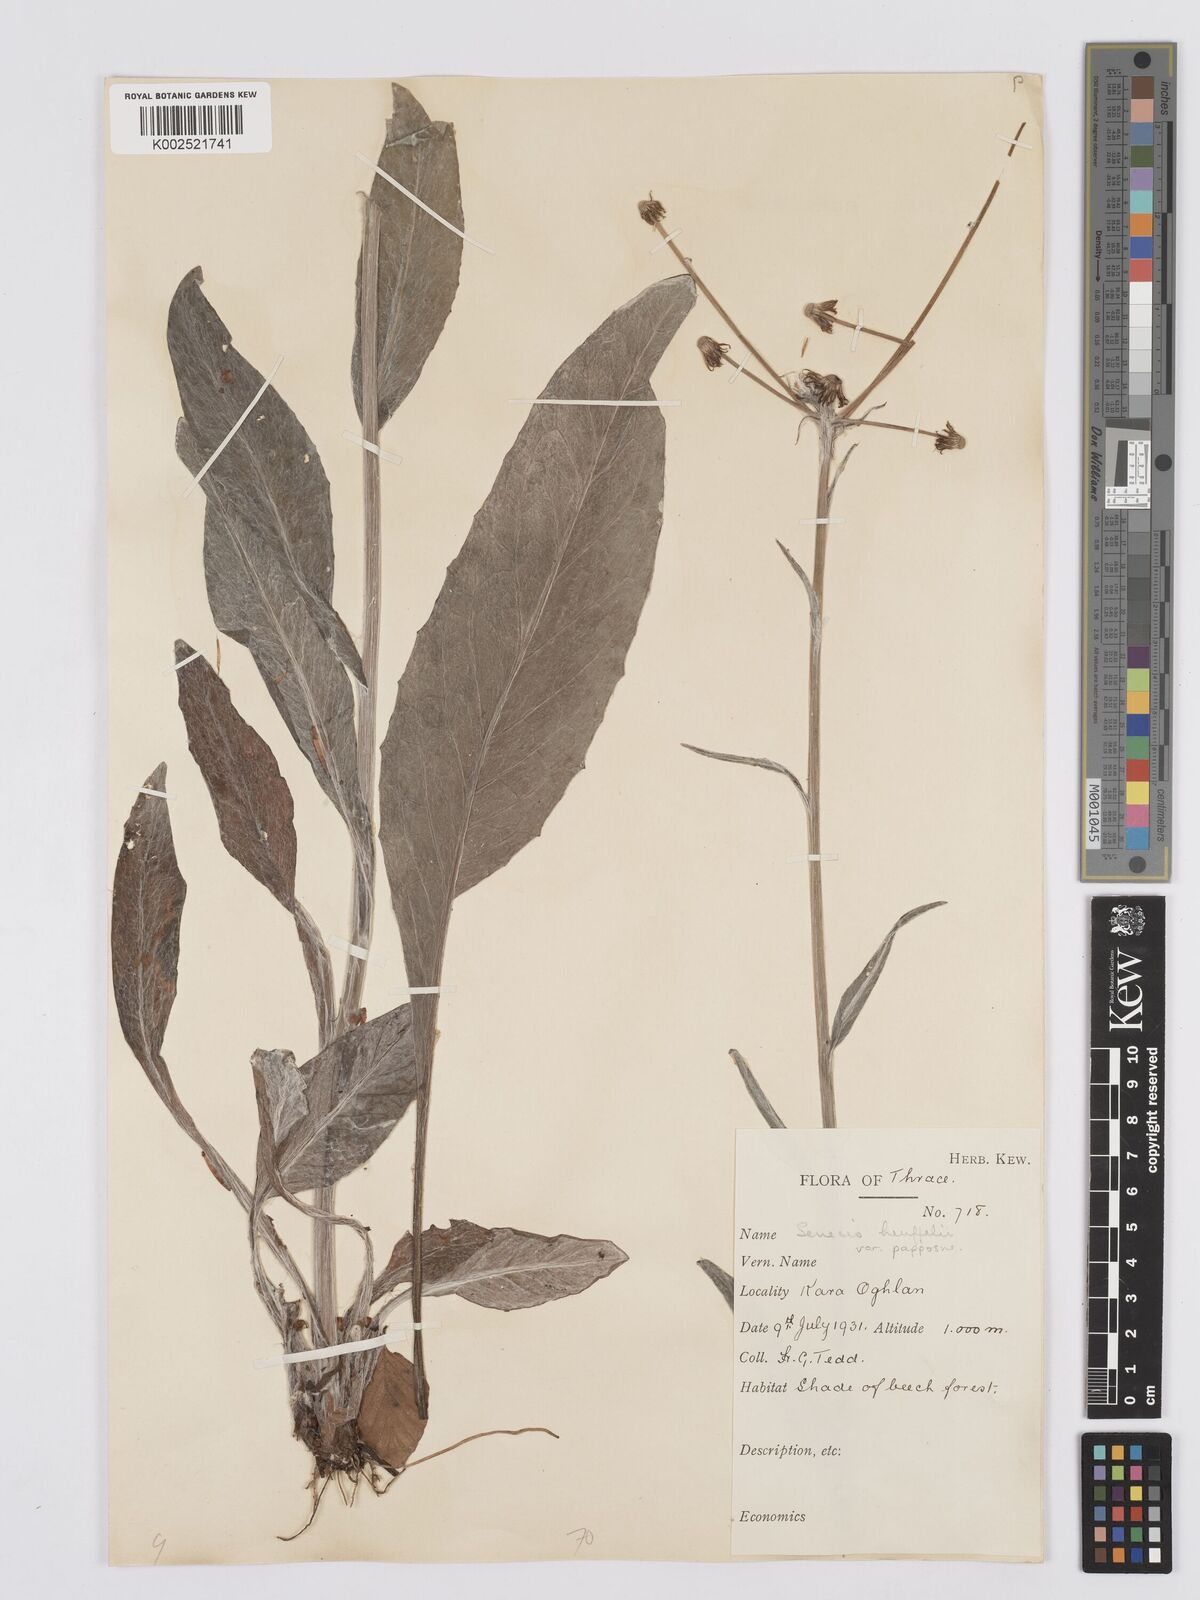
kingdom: Plantae
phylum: Tracheophyta
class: Magnoliopsida
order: Asterales
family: Asteraceae
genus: Tephroseris
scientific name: Tephroseris papposa
